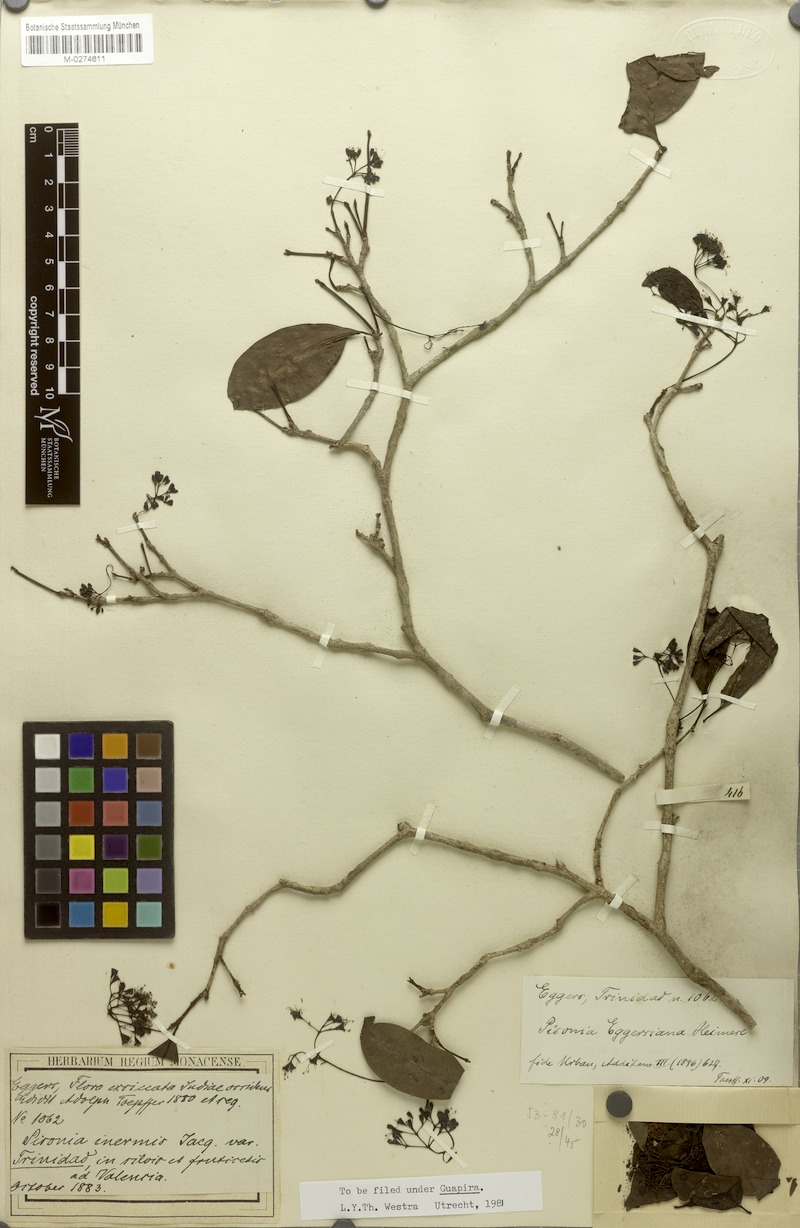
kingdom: Plantae
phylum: Tracheophyta
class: Magnoliopsida
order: Caryophyllales
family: Nyctaginaceae
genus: Guapira
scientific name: Guapira eggersiana
